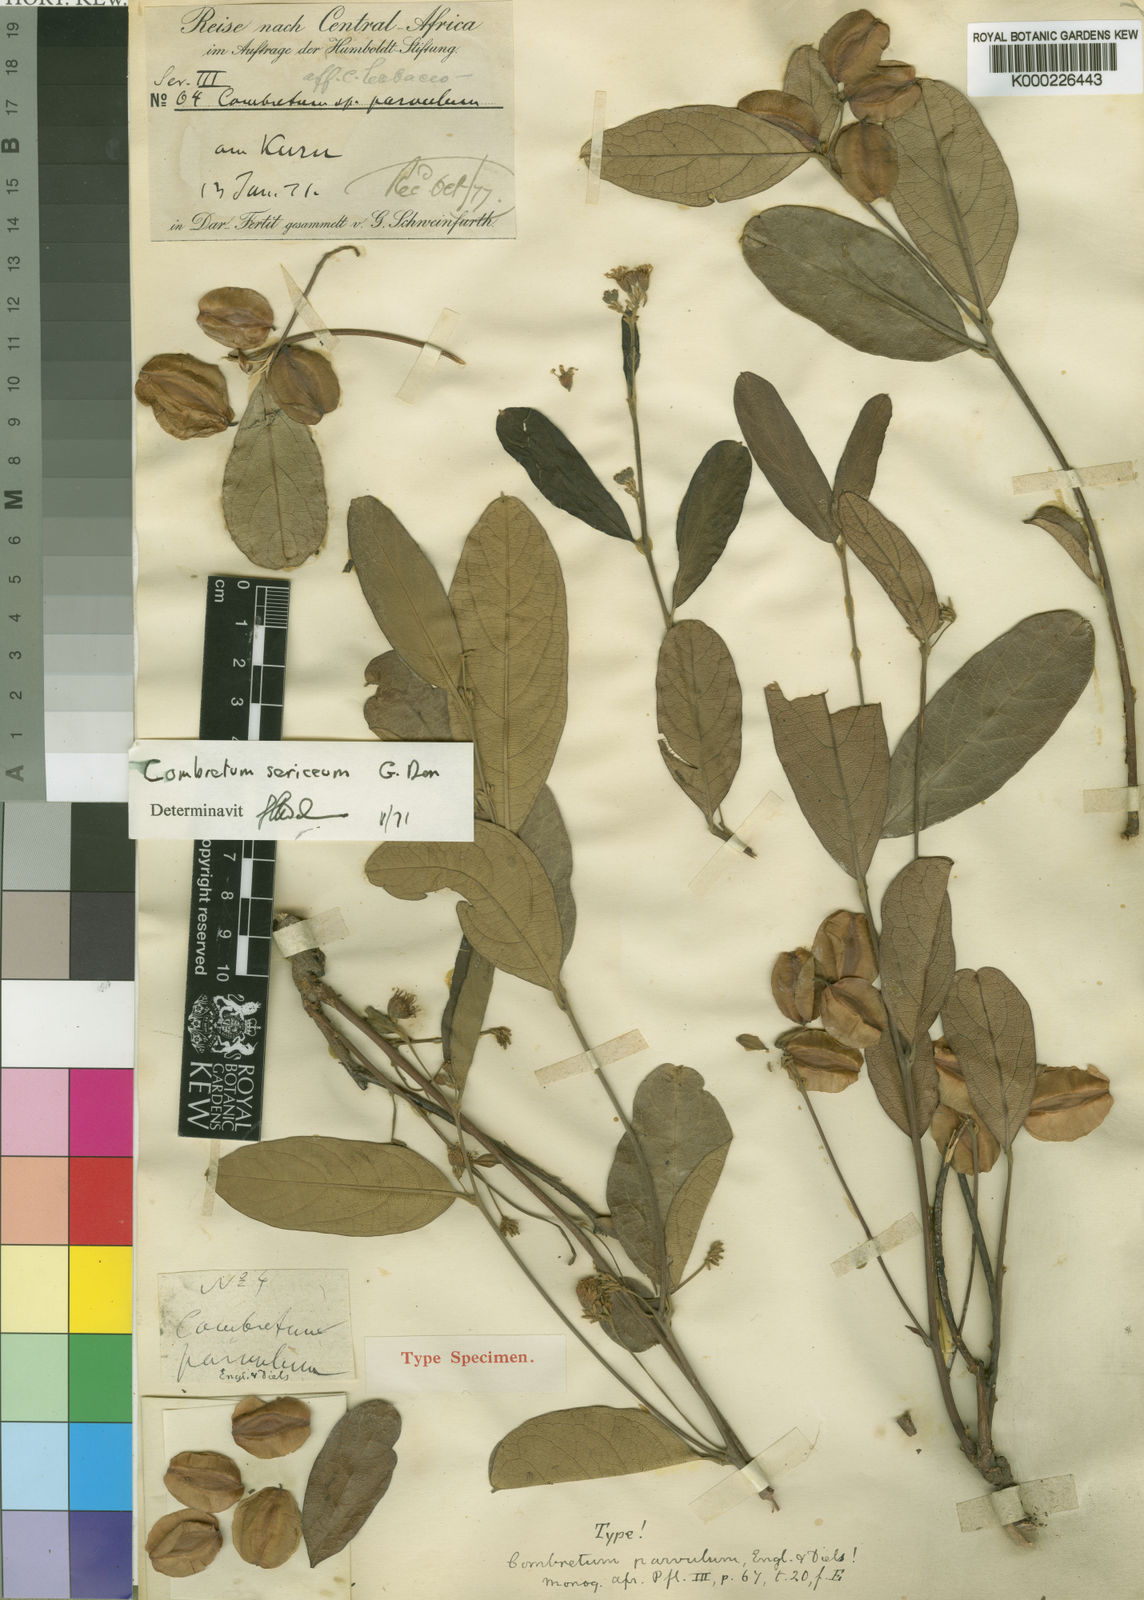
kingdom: Plantae
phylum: Tracheophyta
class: Magnoliopsida
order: Myrtales
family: Combretaceae
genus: Combretum
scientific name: Combretum sericeum
